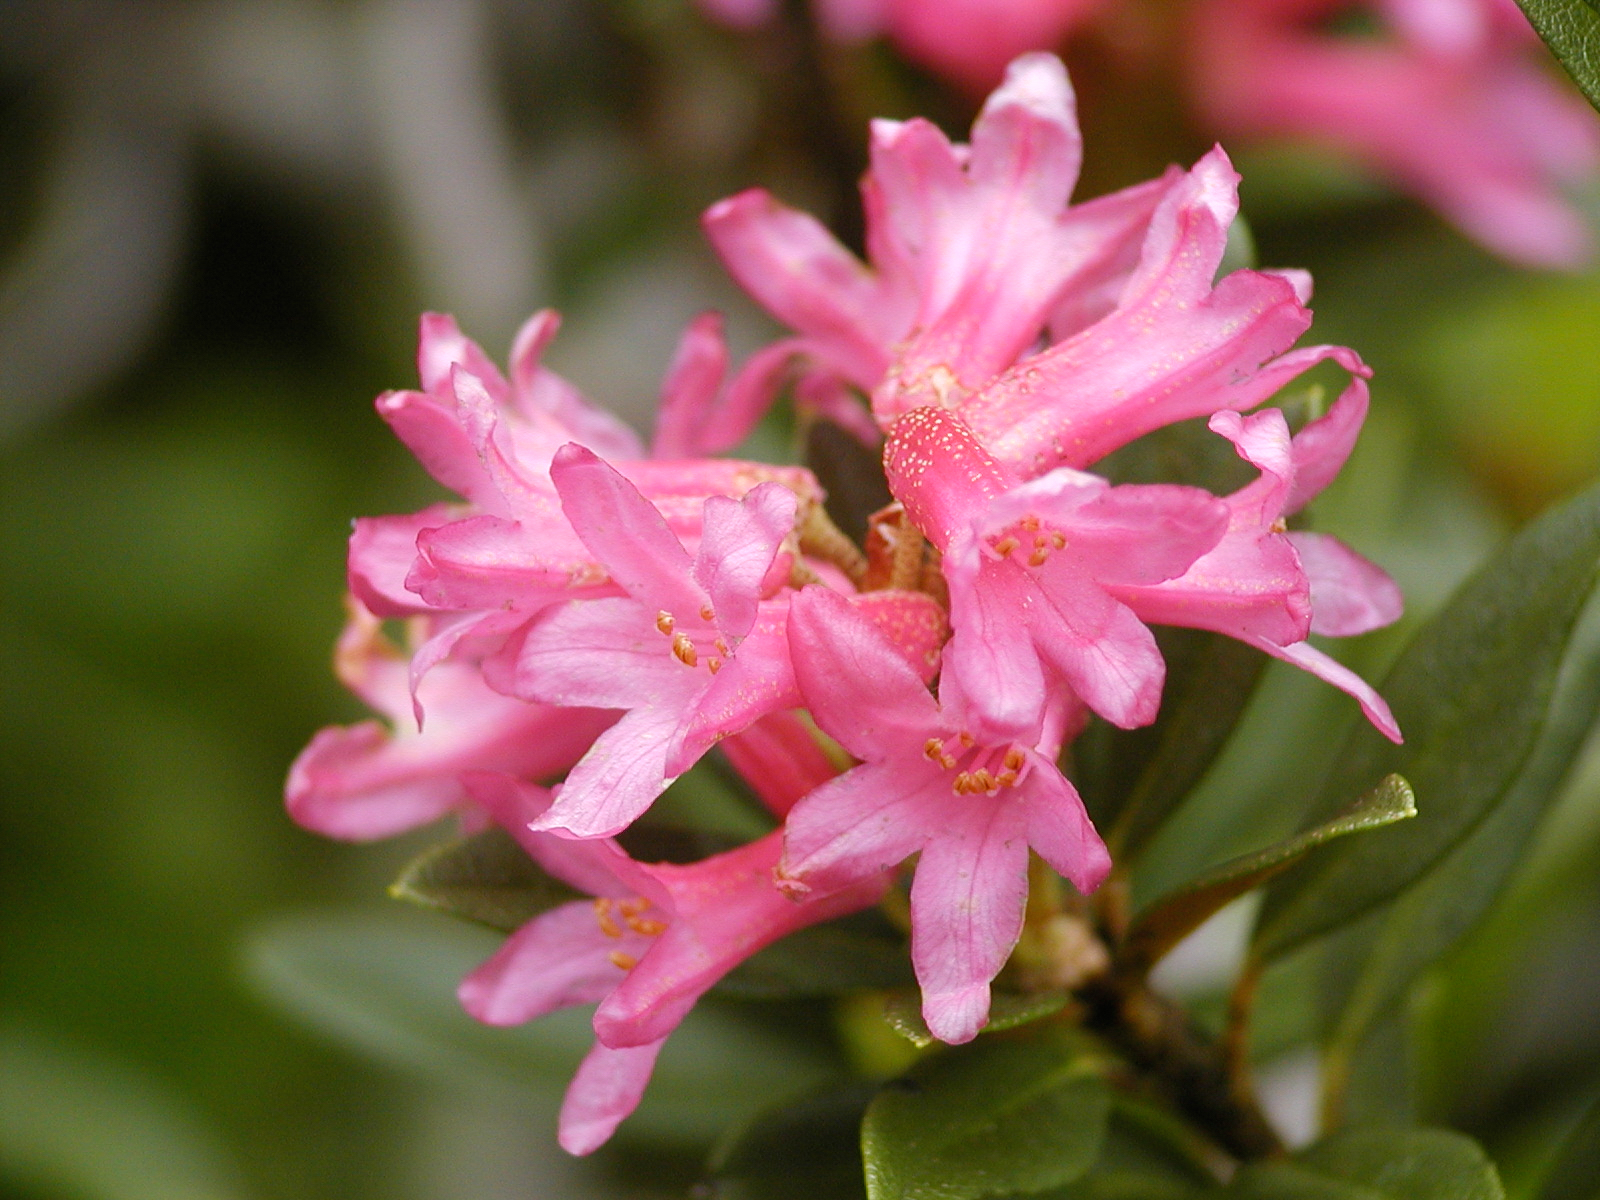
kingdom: Plantae
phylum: Tracheophyta
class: Magnoliopsida
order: Ericales
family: Ericaceae
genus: Rhododendron
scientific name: Rhododendron ferrugineum
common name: Alpenrose
